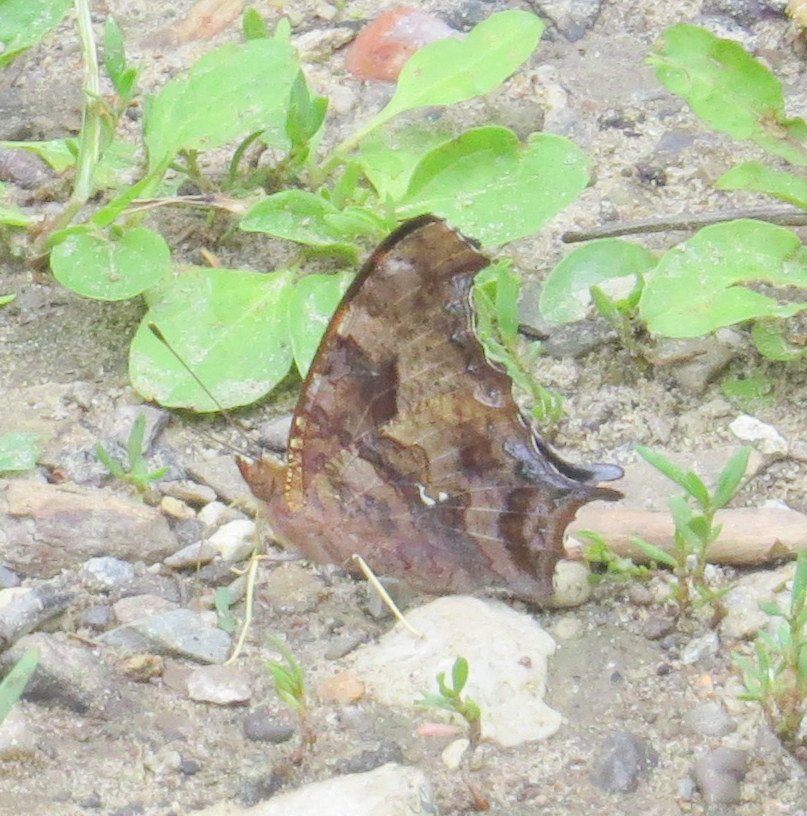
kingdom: Animalia
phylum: Arthropoda
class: Insecta
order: Lepidoptera
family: Nymphalidae
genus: Polygonia
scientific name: Polygonia interrogationis
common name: Question Mark
